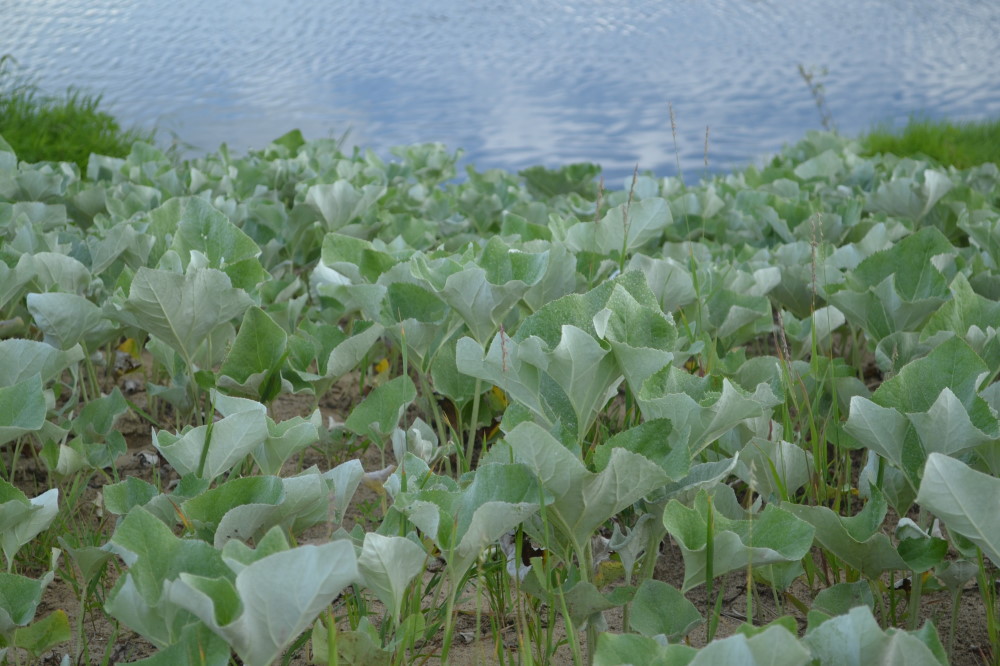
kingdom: Plantae
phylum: Tracheophyta
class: Magnoliopsida
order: Asterales
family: Asteraceae
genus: Petasites
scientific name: Petasites spurius
